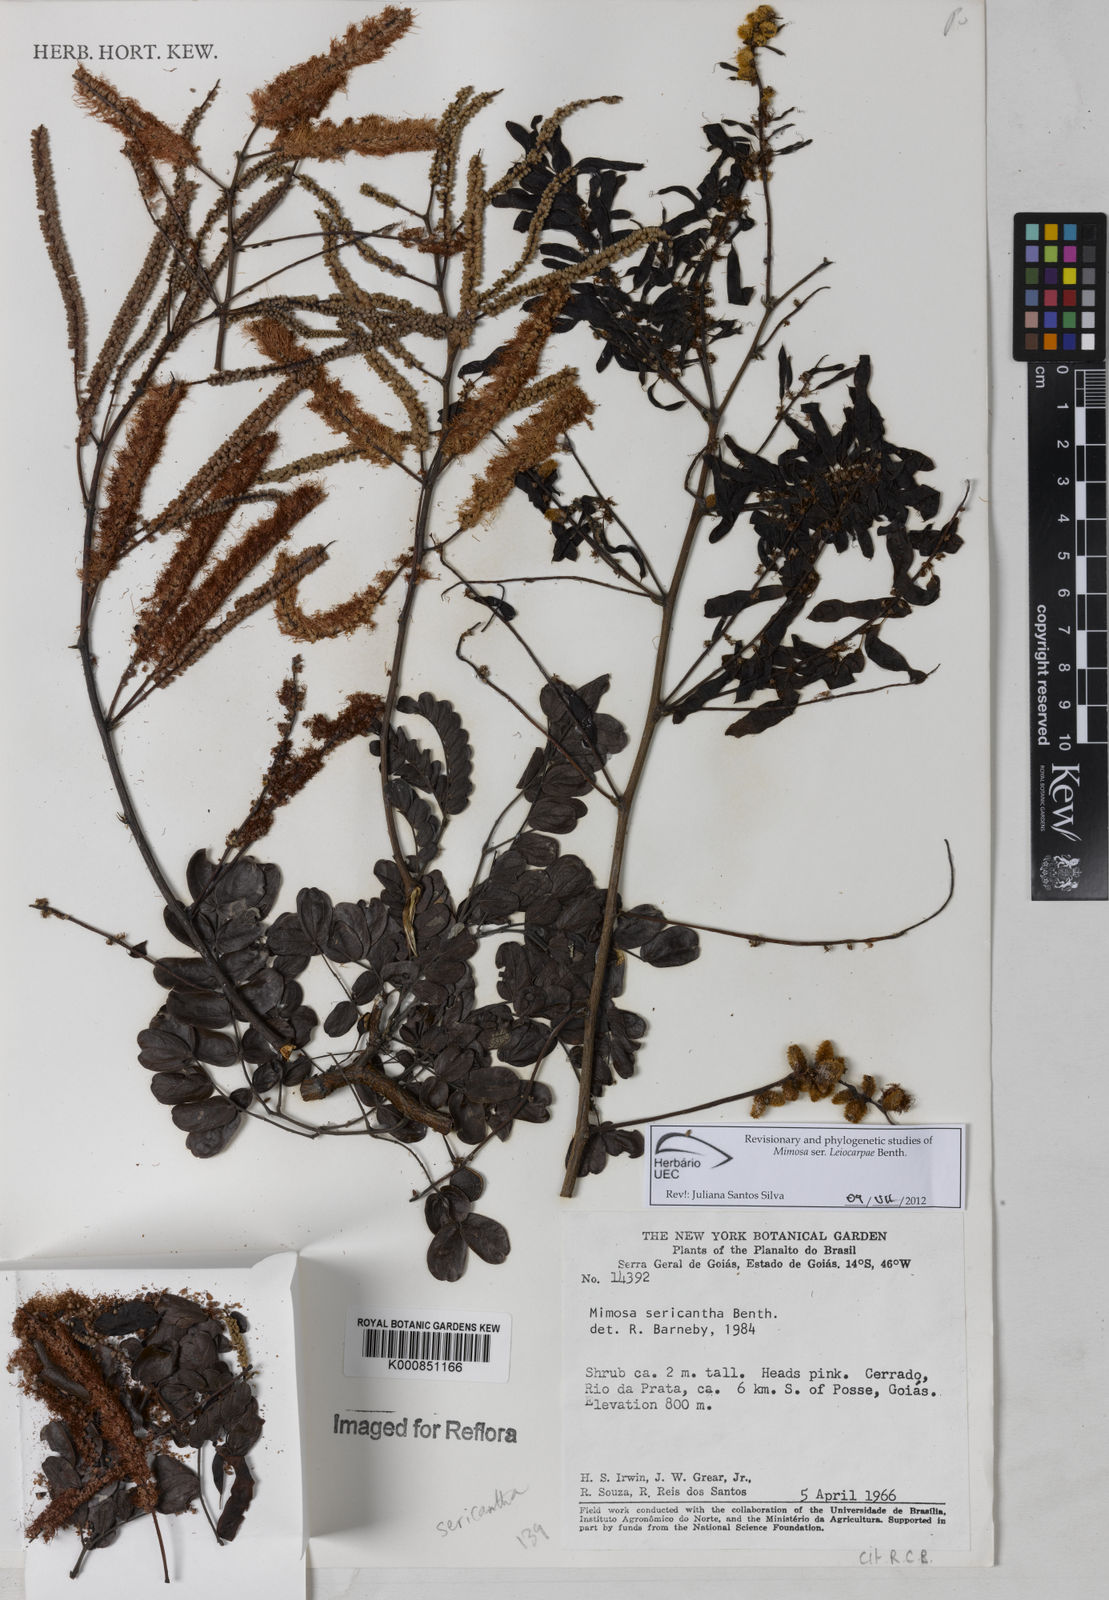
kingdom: Plantae
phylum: Tracheophyta
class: Magnoliopsida
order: Fabales
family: Fabaceae
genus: Mimosa
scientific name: Mimosa sericantha
